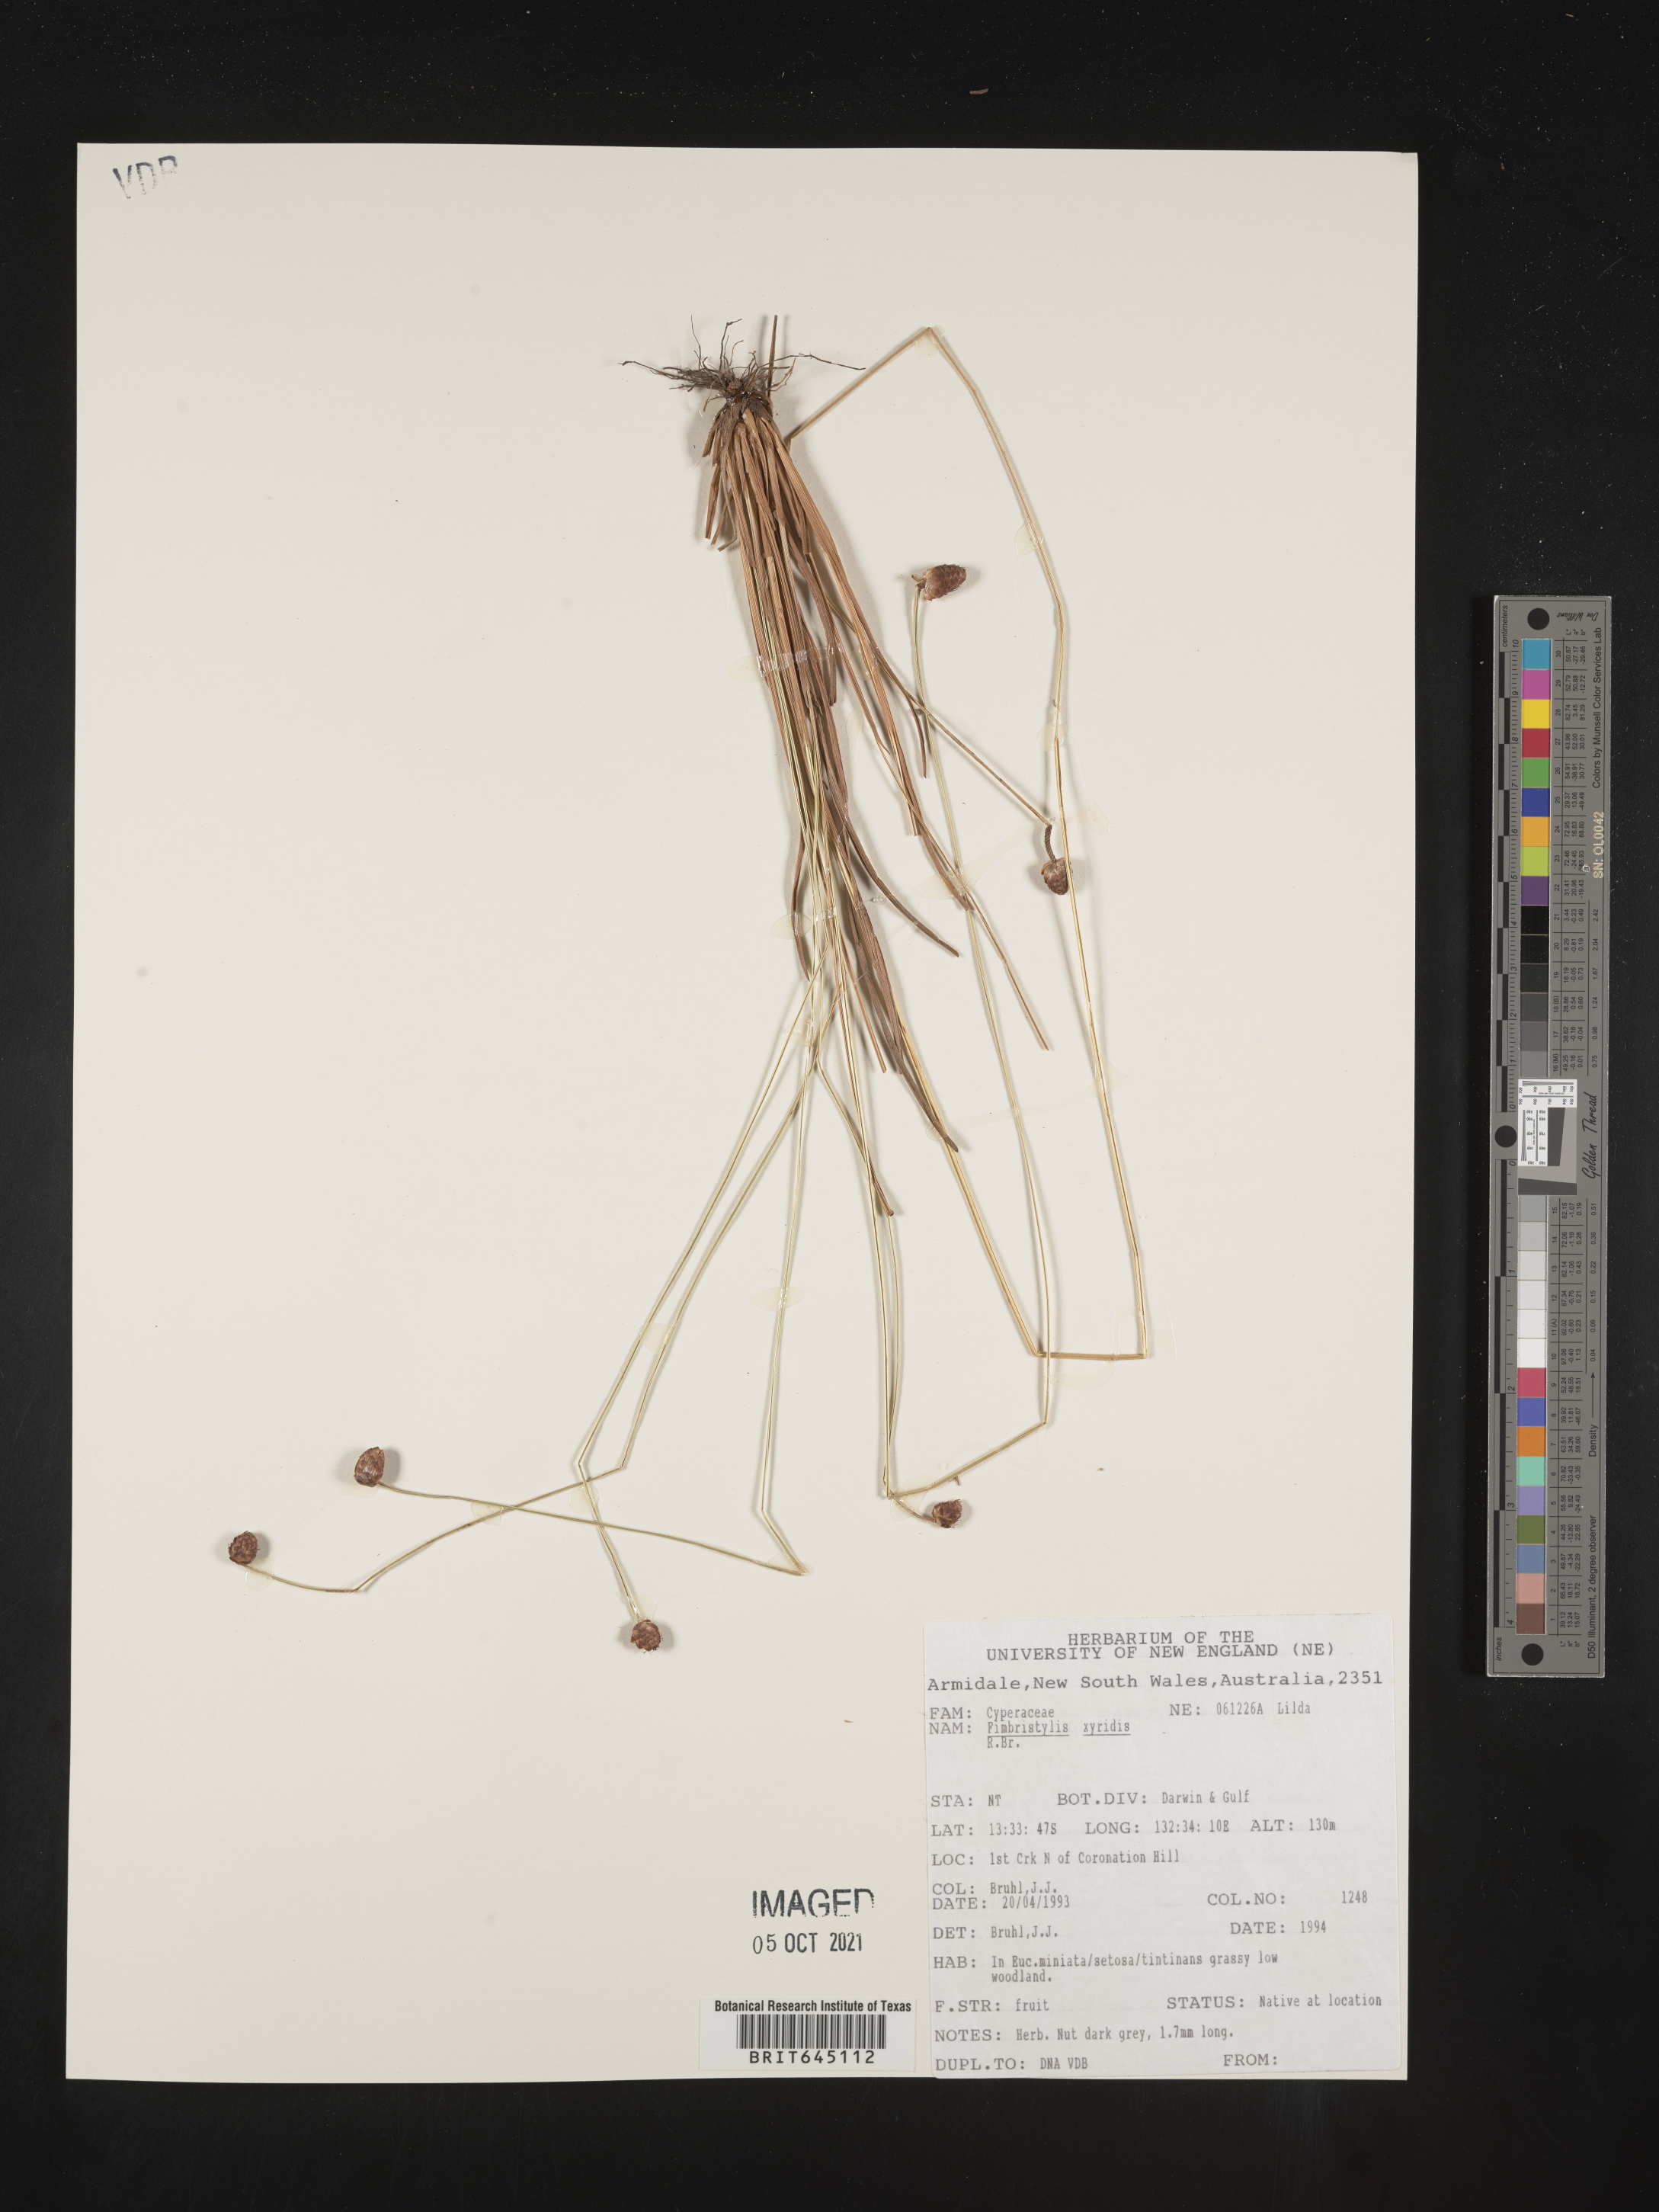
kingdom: Plantae
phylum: Tracheophyta
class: Liliopsida
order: Poales
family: Cyperaceae
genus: Fimbristylis
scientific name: Fimbristylis xyridis
